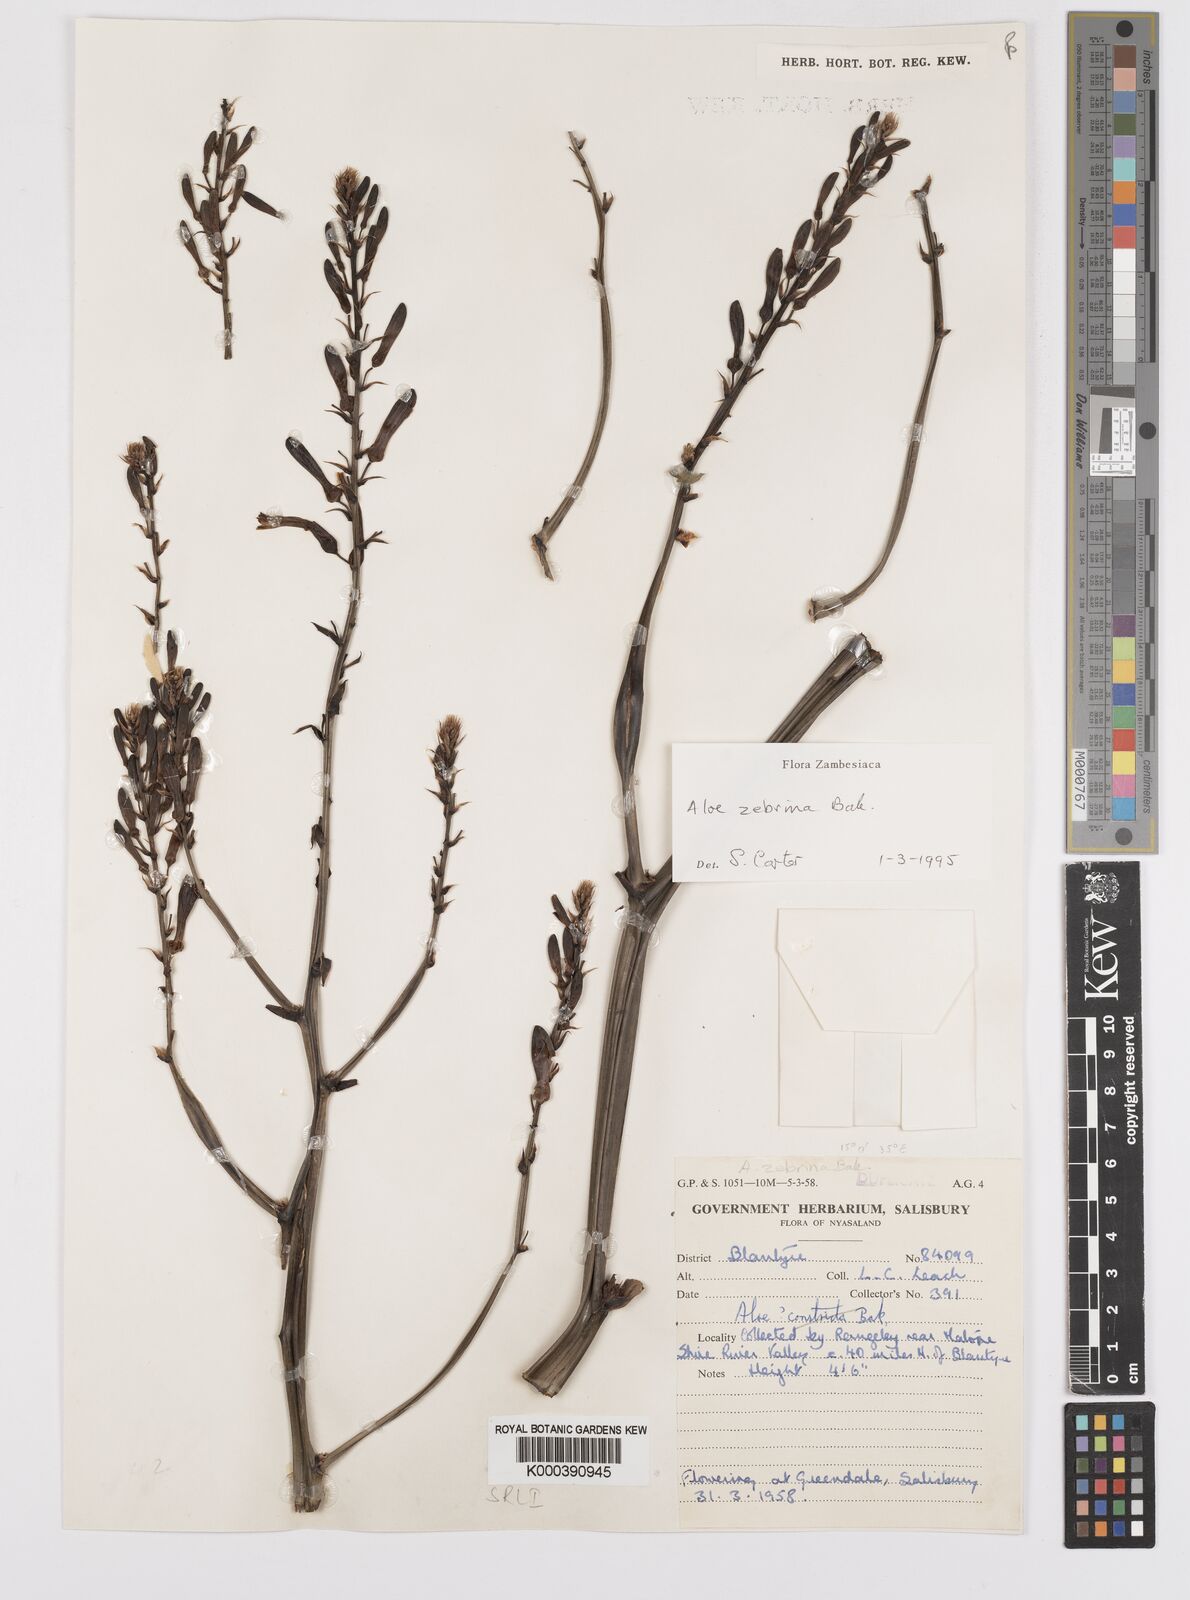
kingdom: Plantae
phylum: Tracheophyta
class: Liliopsida
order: Asparagales
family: Asphodelaceae
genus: Aloe
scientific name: Aloe zebrina
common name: Zebra-leaf aloe
